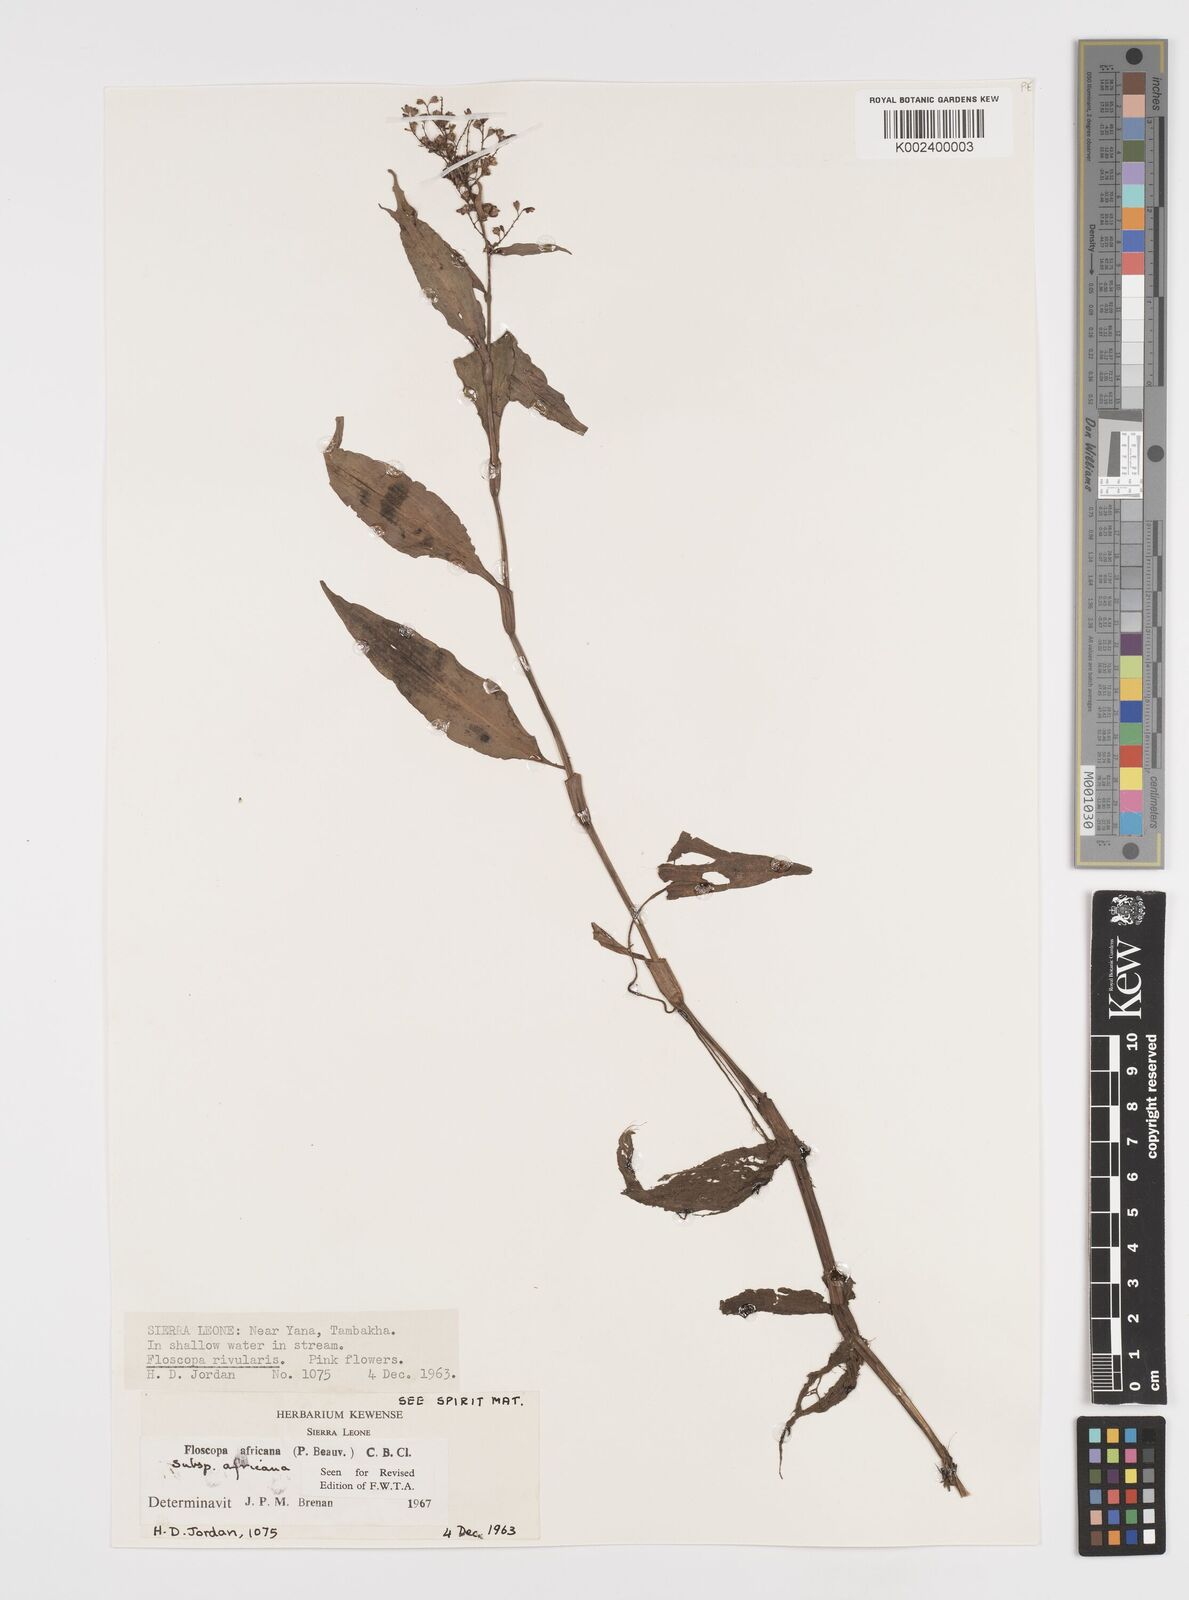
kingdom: Plantae
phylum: Tracheophyta
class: Liliopsida
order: Commelinales
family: Commelinaceae
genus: Floscopa
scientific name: Floscopa africana
